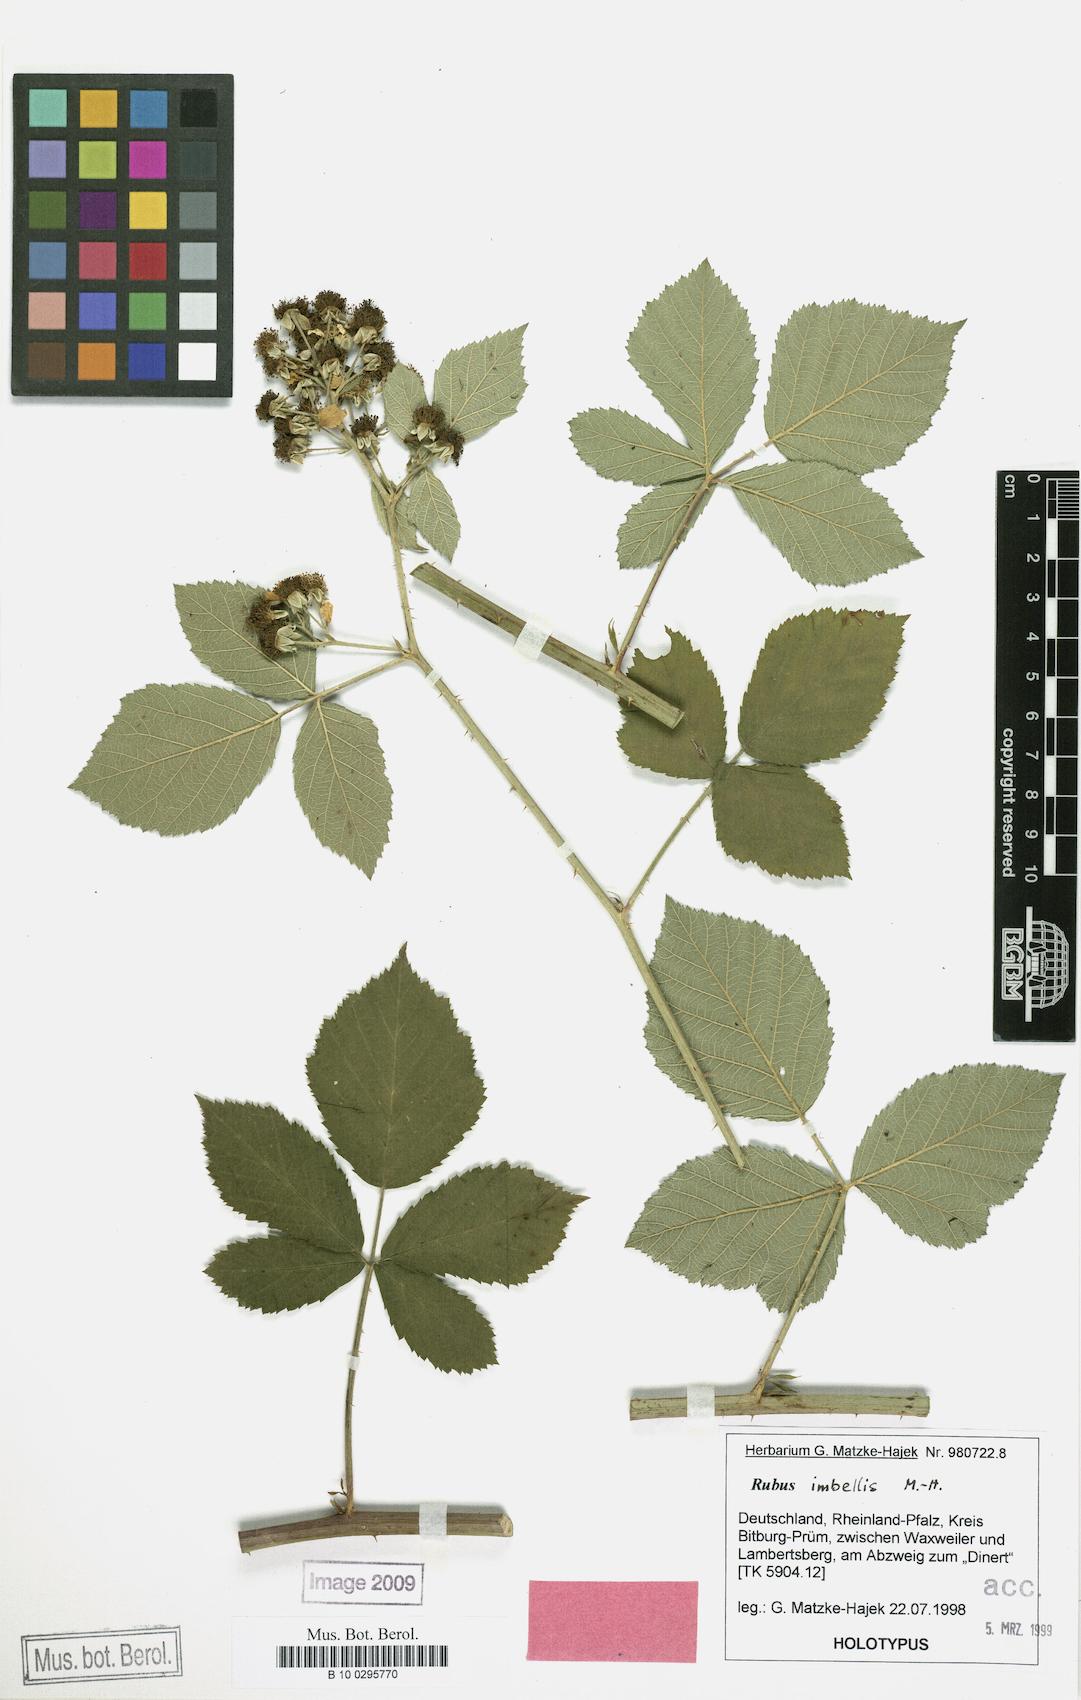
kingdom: Plantae
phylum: Tracheophyta
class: Magnoliopsida
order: Rosales
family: Rosaceae
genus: Rubus
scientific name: Rubus imbellis
